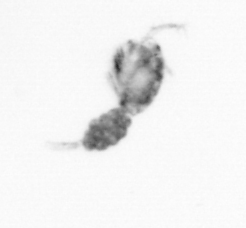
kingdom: Animalia
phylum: Arthropoda
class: Copepoda
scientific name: Copepoda
